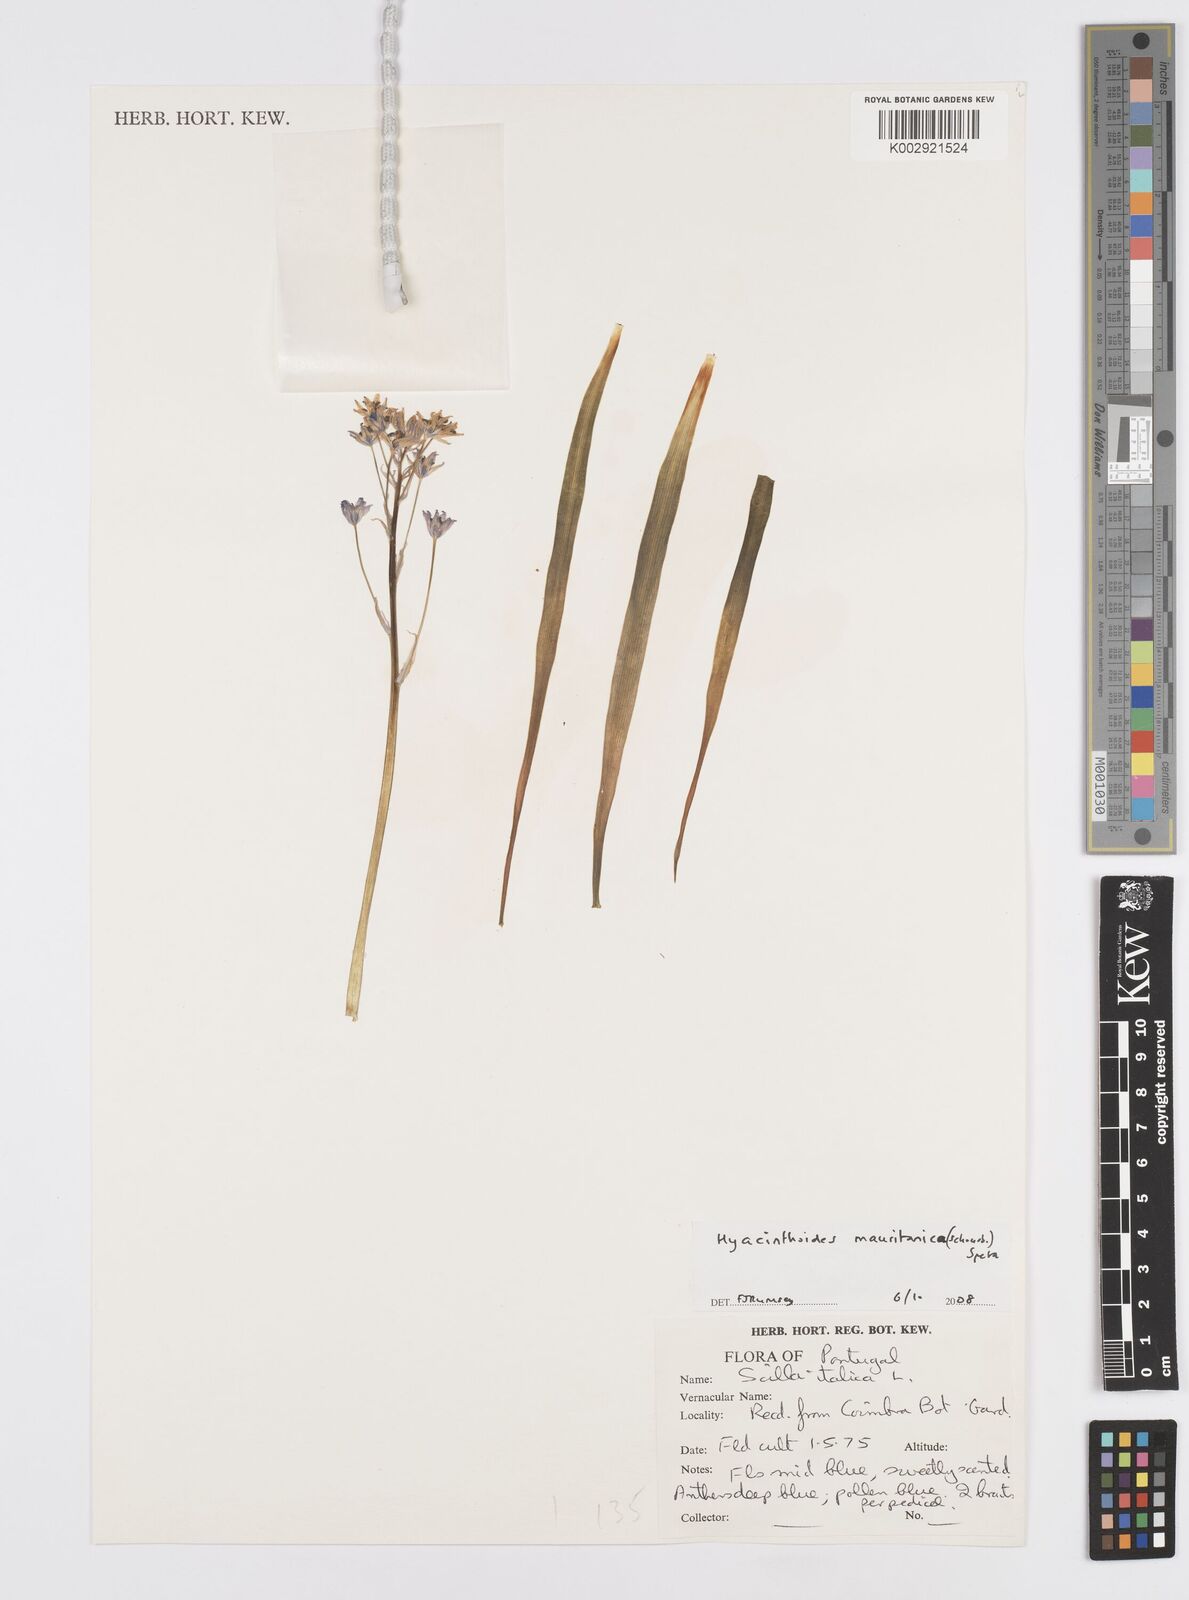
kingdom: Plantae
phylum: Tracheophyta
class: Liliopsida
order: Asparagales
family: Asparagaceae
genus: Hyacinthoides
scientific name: Hyacinthoides mauritanica
